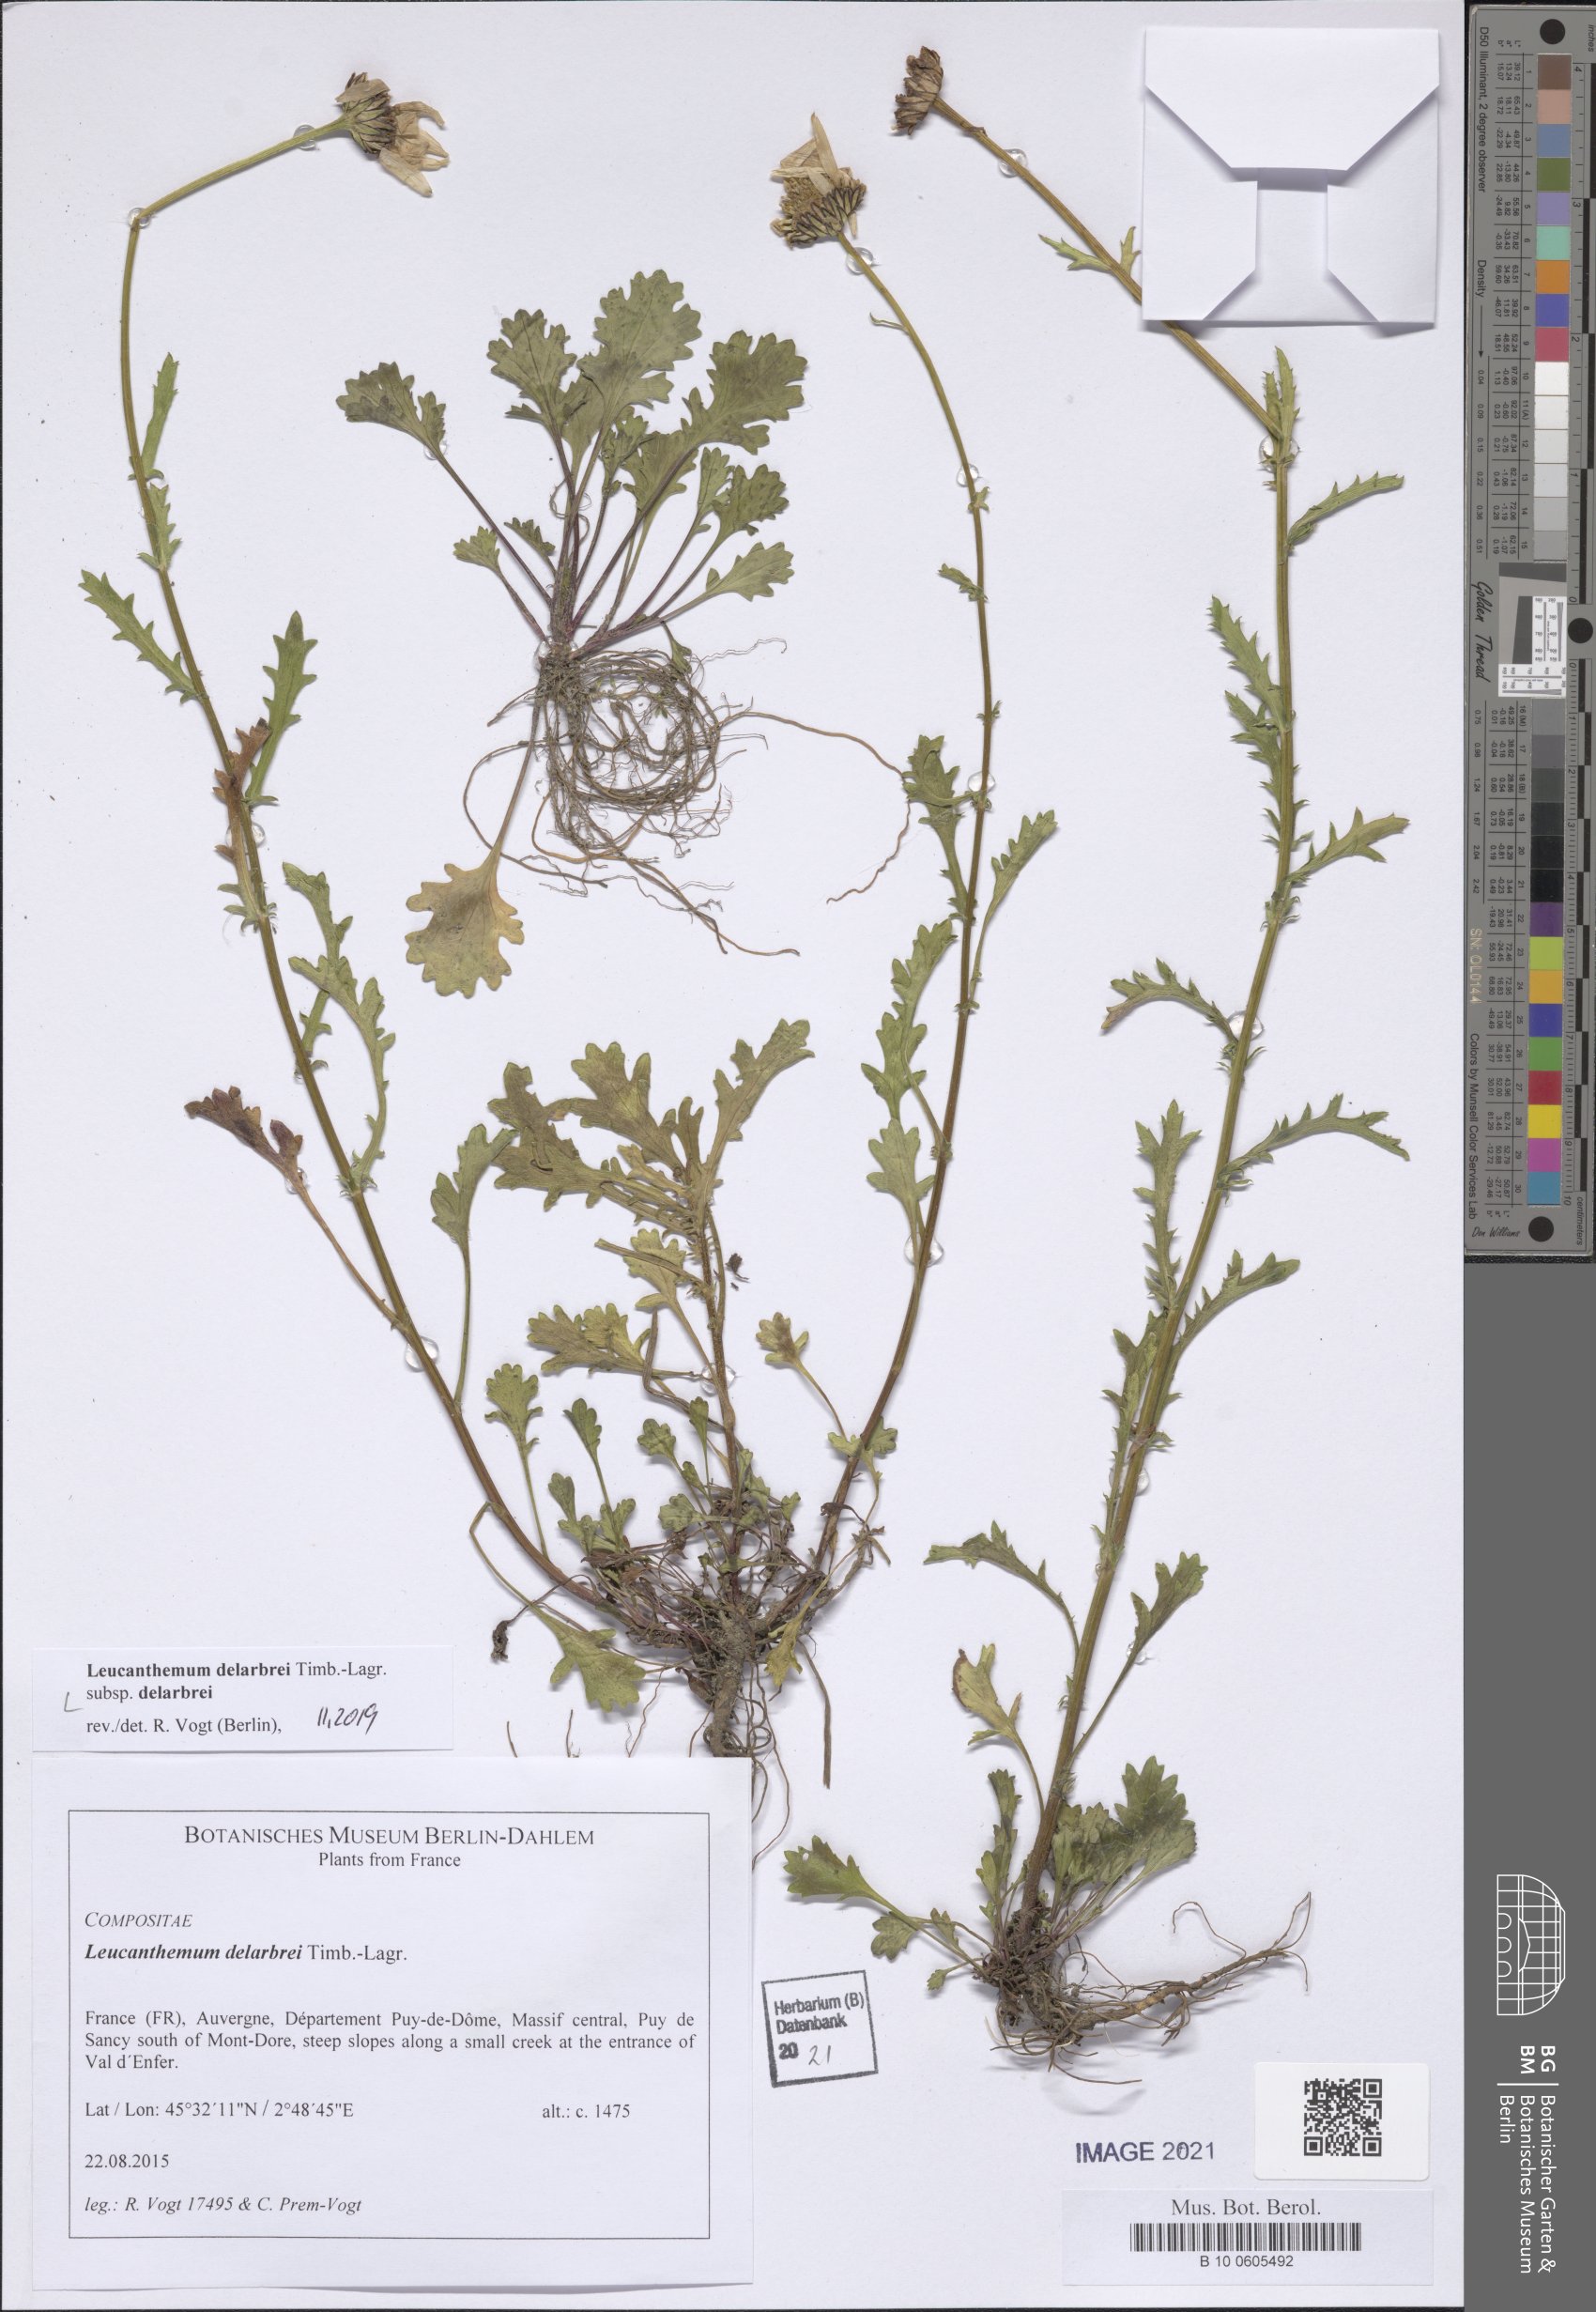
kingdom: Plantae
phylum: Tracheophyta
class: Magnoliopsida
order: Asterales
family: Asteraceae
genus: Leucanthemum
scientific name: Leucanthemum delarbrei
